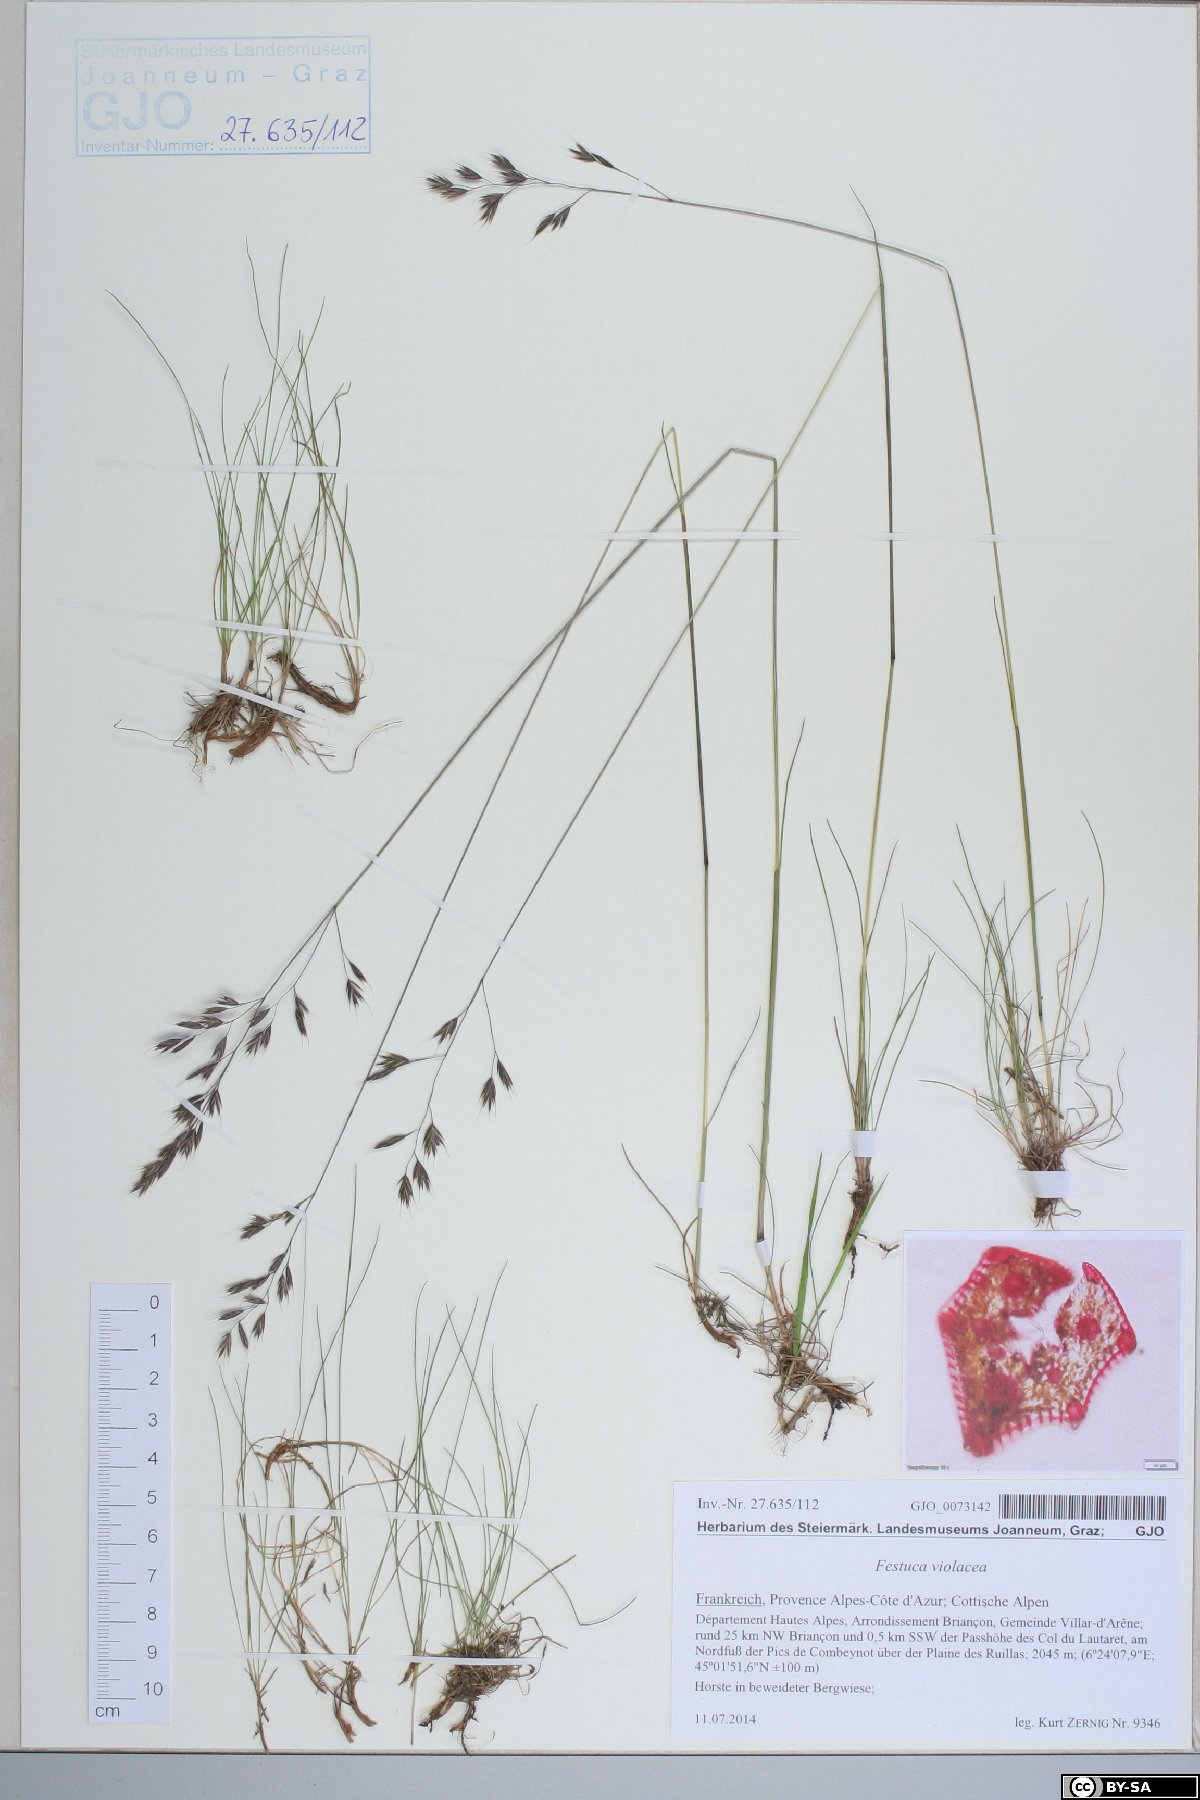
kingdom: Plantae
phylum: Tracheophyta
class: Liliopsida
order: Poales
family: Poaceae
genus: Festuca
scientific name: Festuca violacea
